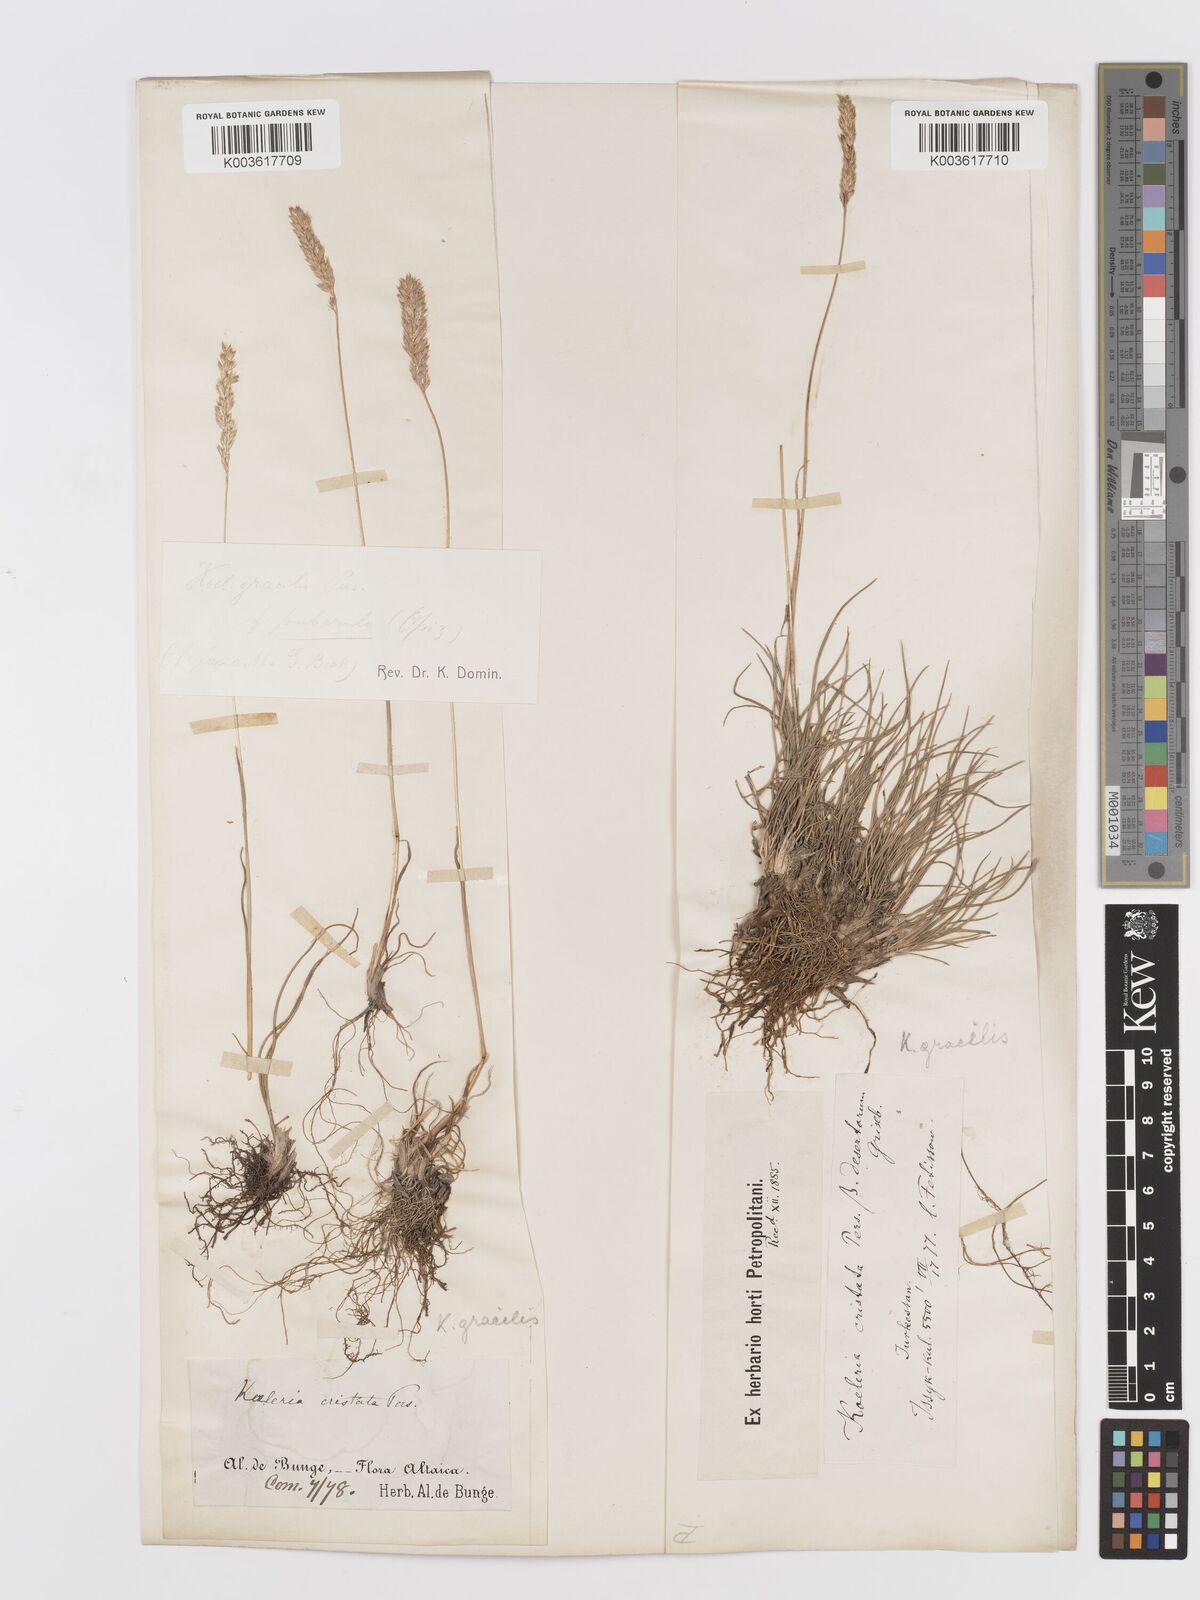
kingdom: Plantae
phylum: Tracheophyta
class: Liliopsida
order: Poales
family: Poaceae
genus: Koeleria
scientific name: Koeleria pyramidata
